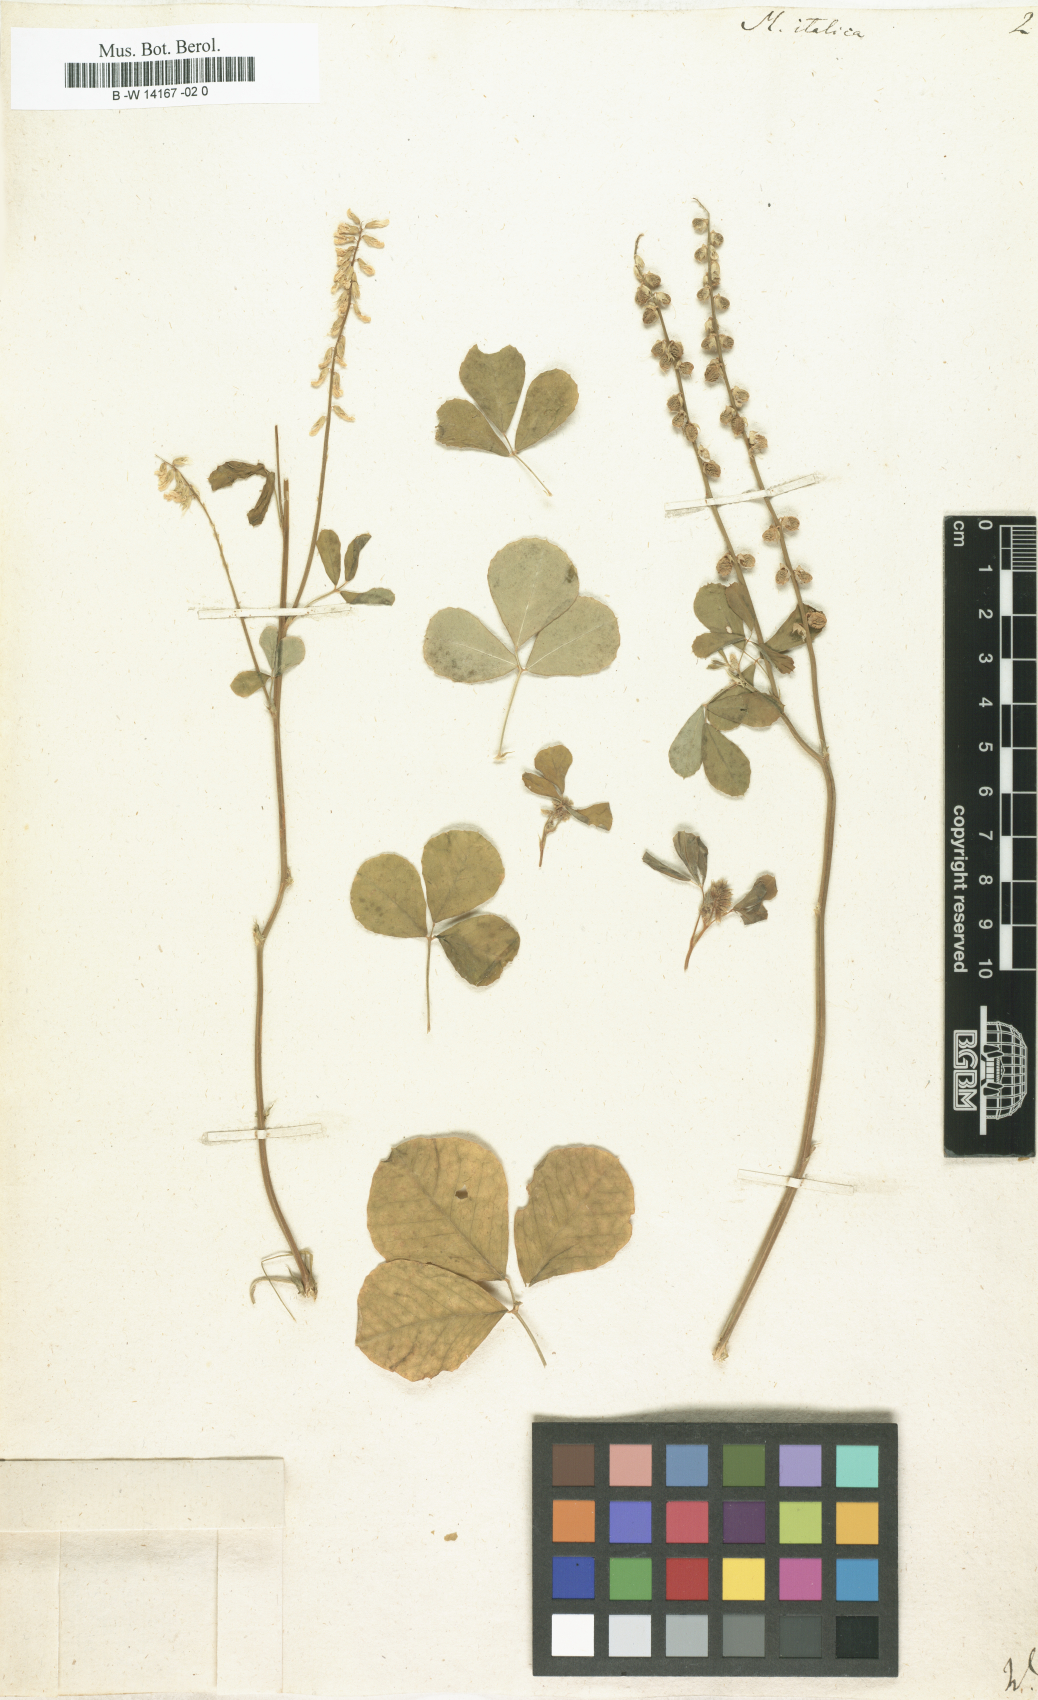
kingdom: Plantae
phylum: Tracheophyta
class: Magnoliopsida
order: Fabales
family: Fabaceae
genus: Melilotus
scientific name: Melilotus italicus
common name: Italian melilot
